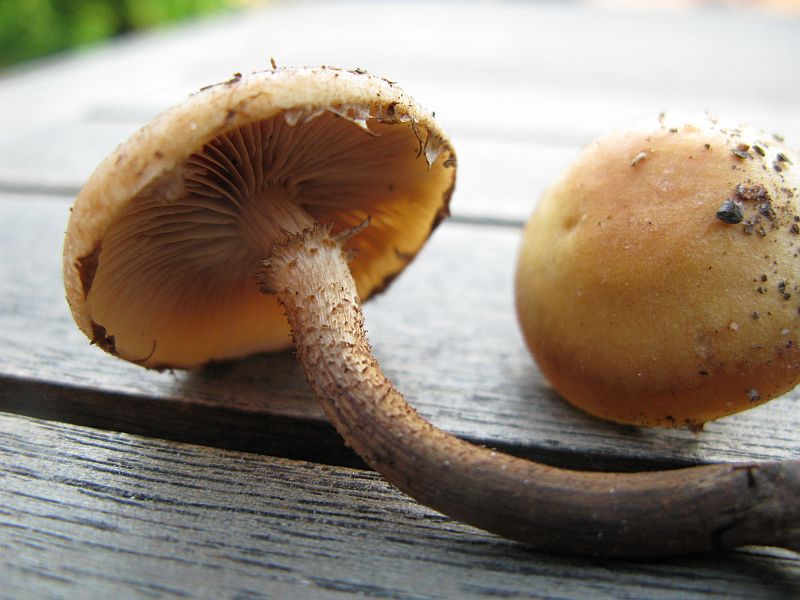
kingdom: Fungi
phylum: Basidiomycota
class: Agaricomycetes
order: Agaricales
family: Strophariaceae
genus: Kuehneromyces
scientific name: Kuehneromyces mutabilis
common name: foranderlig skælhat
